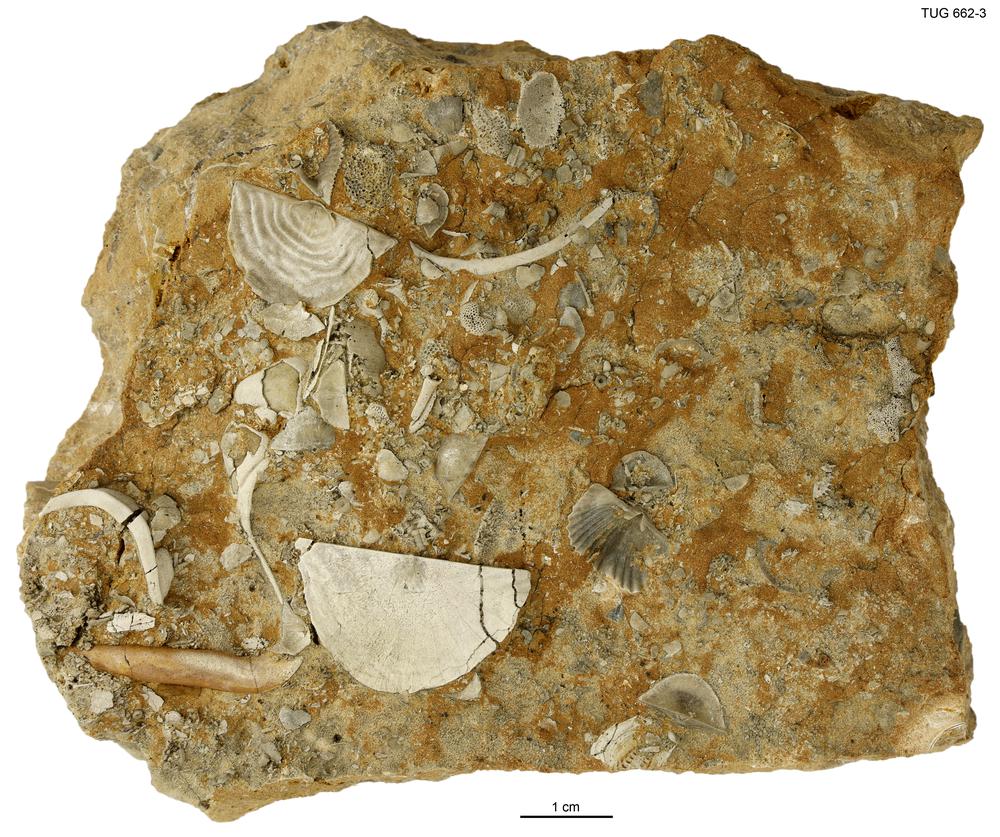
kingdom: Animalia
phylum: Brachiopoda
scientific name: Brachiopoda
